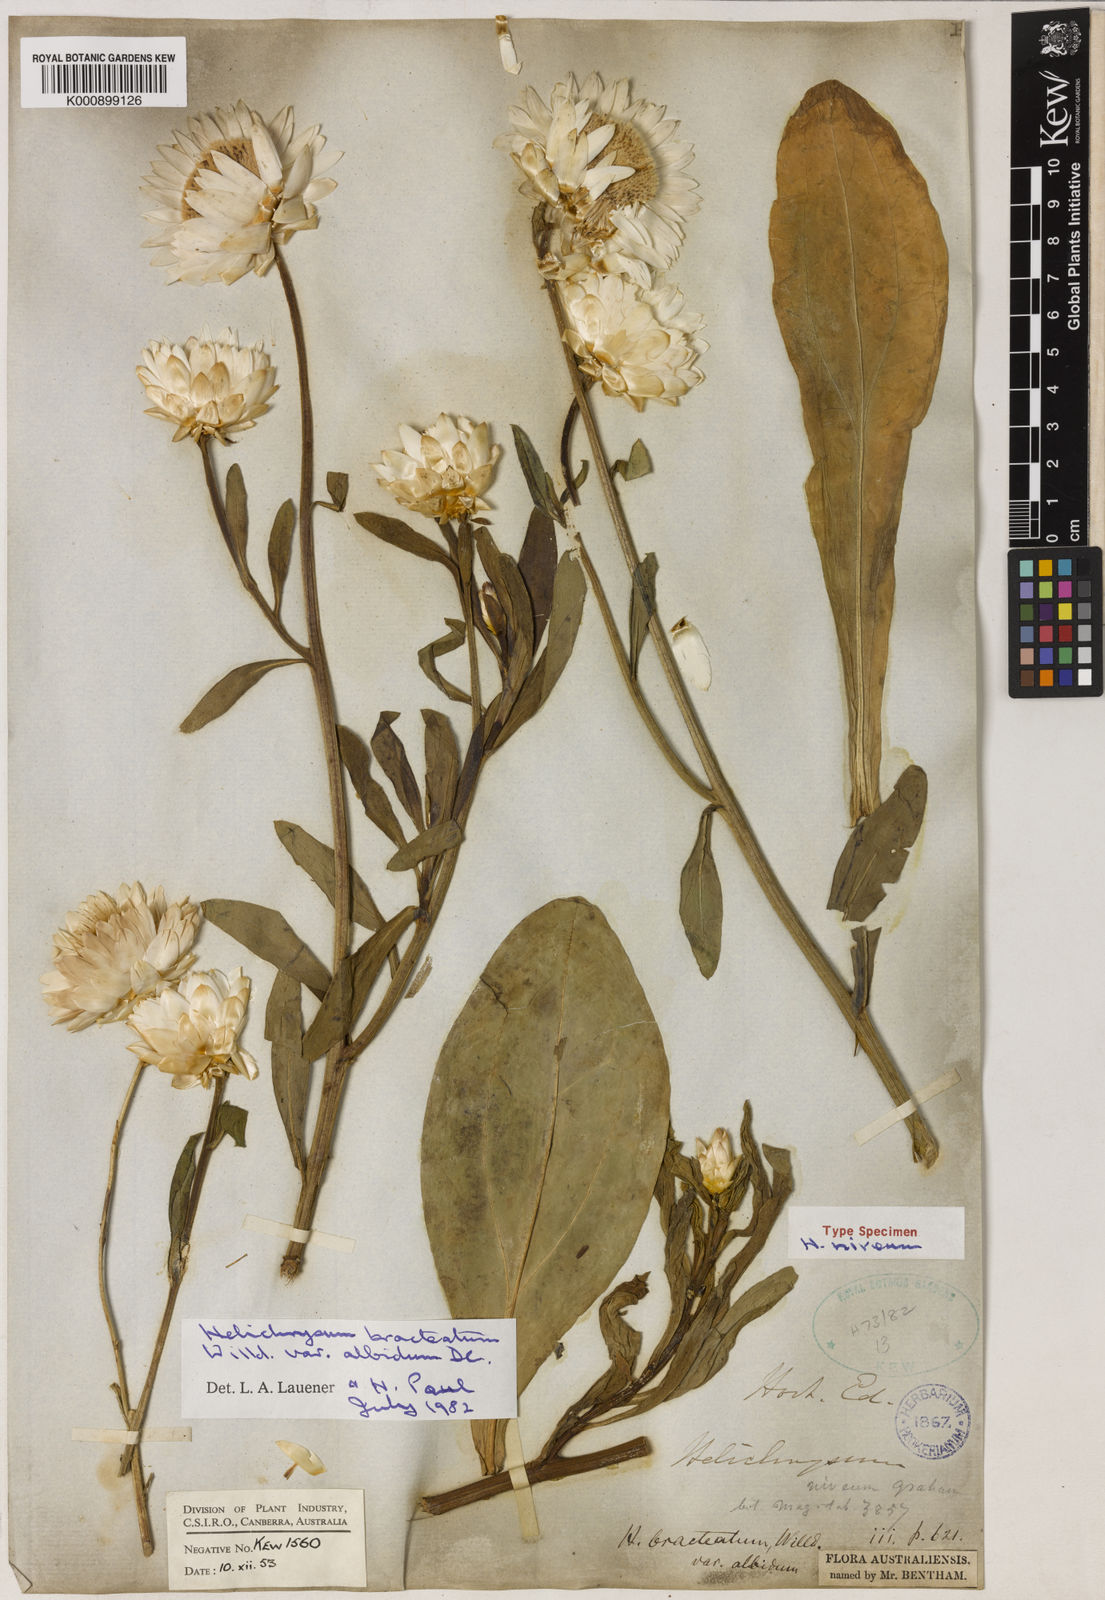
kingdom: Plantae
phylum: Tracheophyta
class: Magnoliopsida
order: Asterales
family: Asteraceae
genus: Xerochrysum
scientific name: Xerochrysum bracteatum
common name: Bracted strawflower
